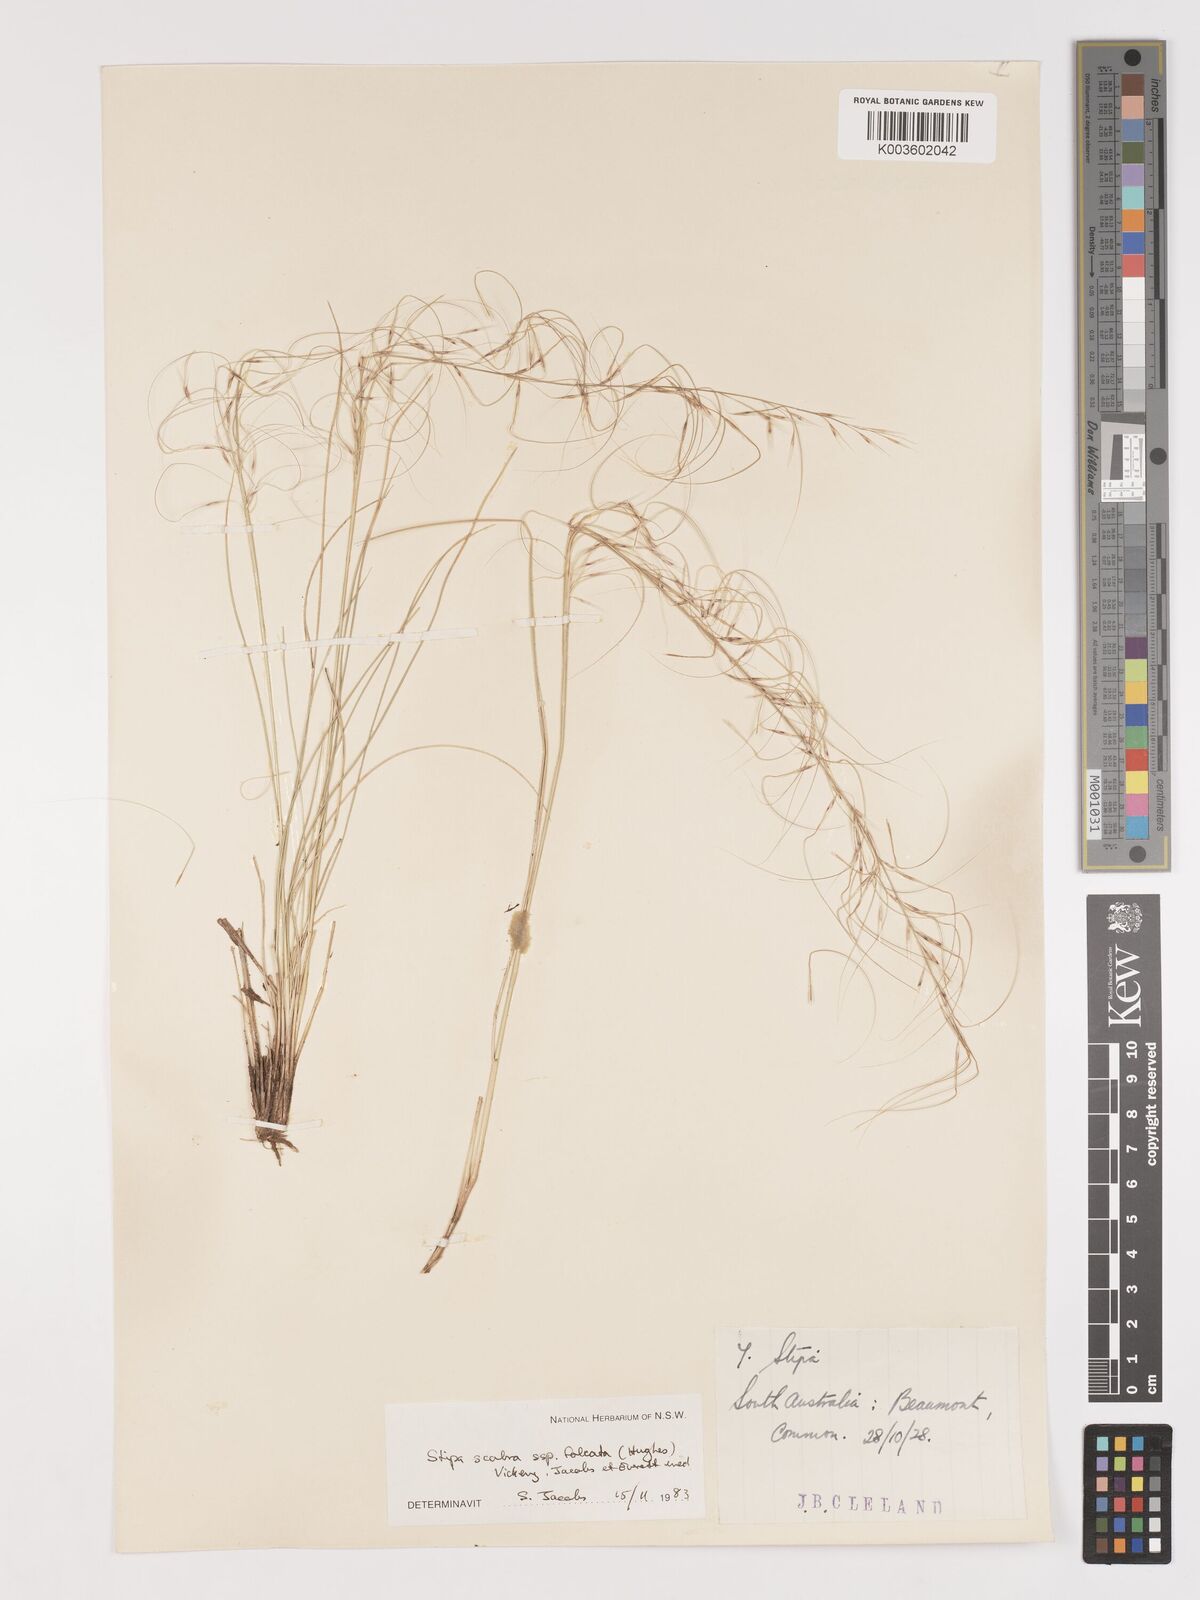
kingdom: Plantae
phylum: Tracheophyta
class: Liliopsida
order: Poales
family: Poaceae
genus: Austrostipa
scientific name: Austrostipa scabra
